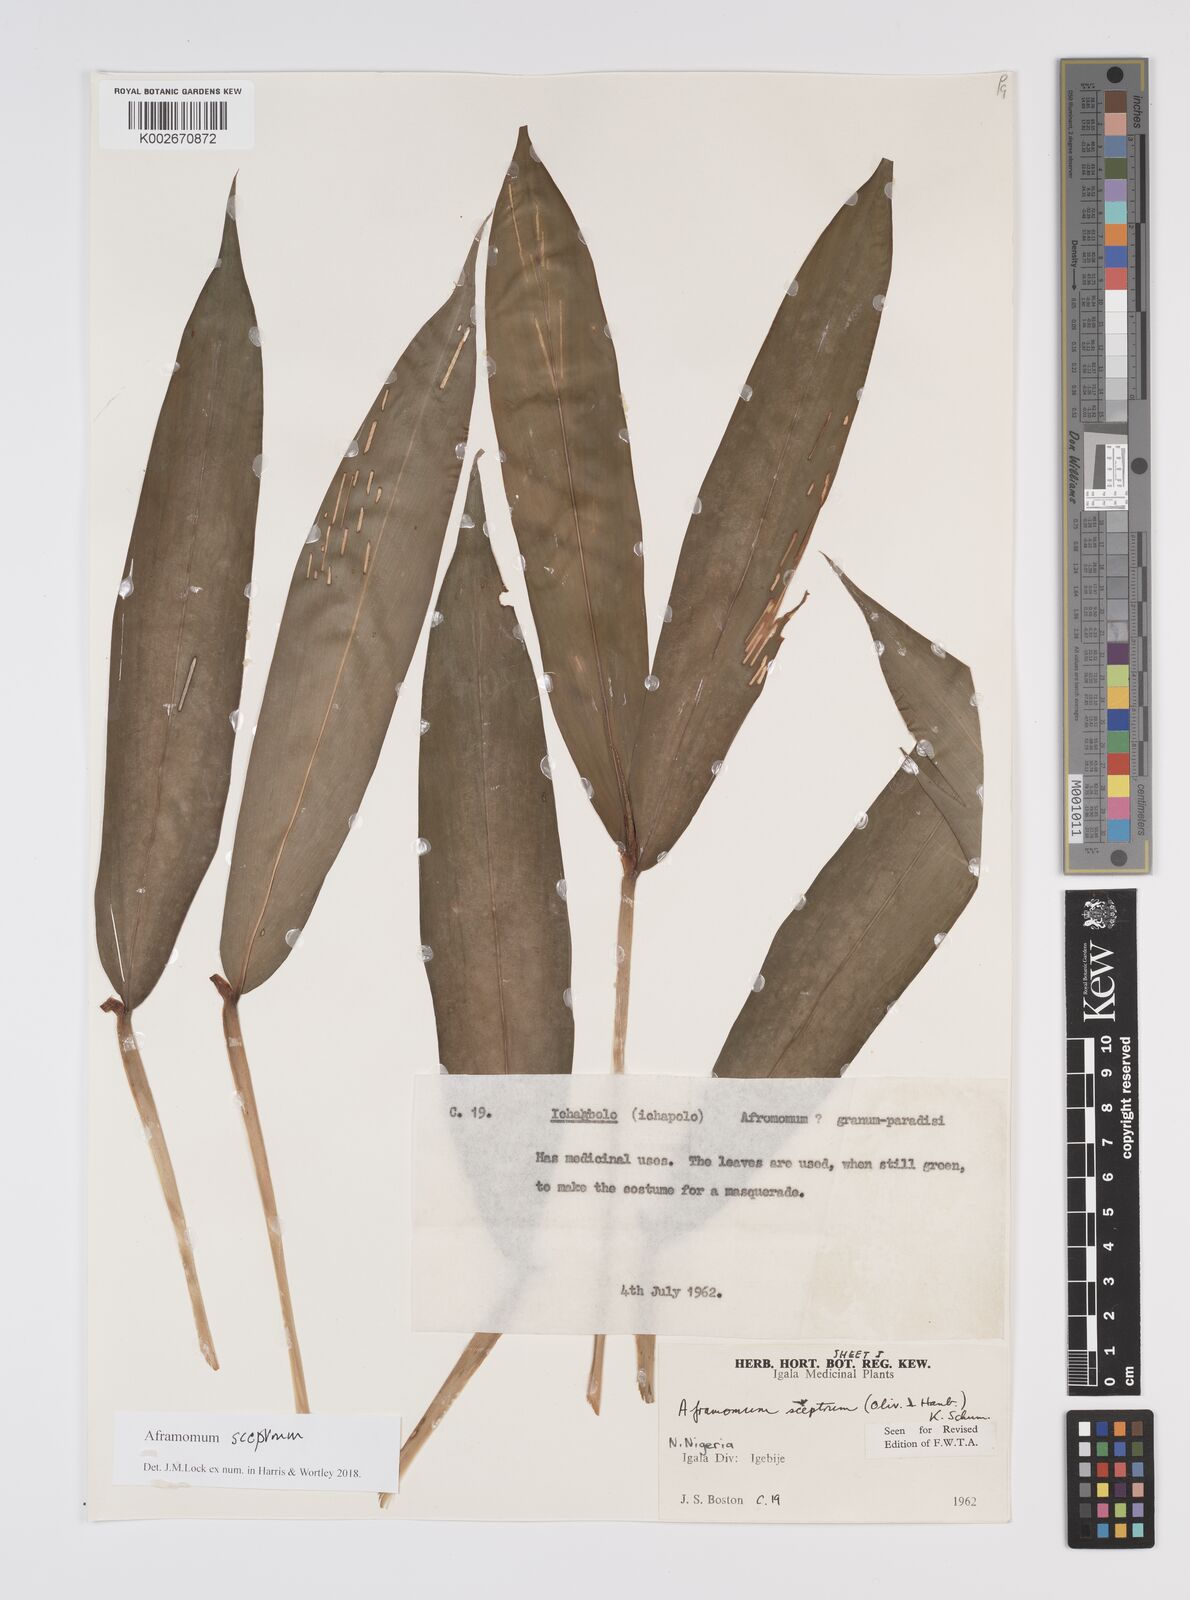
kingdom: Plantae
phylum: Tracheophyta
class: Liliopsida
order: Zingiberales
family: Zingiberaceae
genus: Aframomum
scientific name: Aframomum cereum
